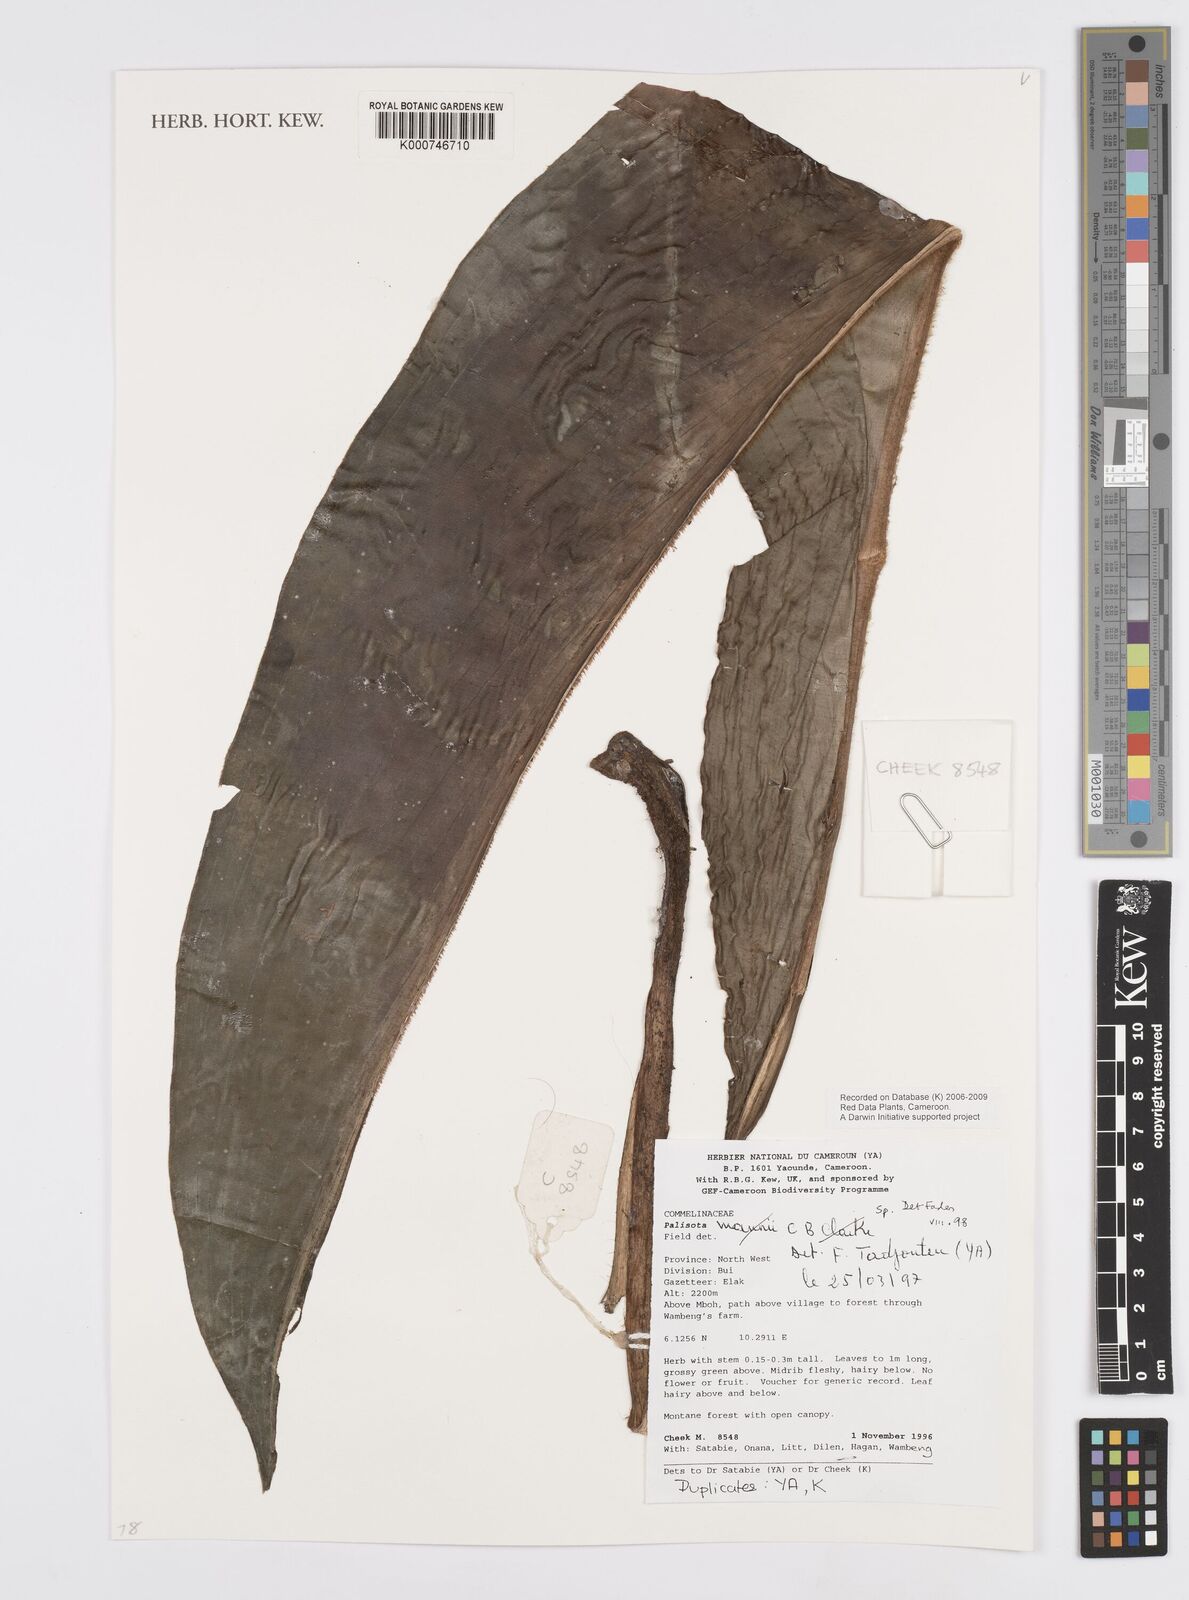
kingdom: Plantae
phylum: Tracheophyta
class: Liliopsida
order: Commelinales
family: Commelinaceae
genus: Palisota
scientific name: Palisota
